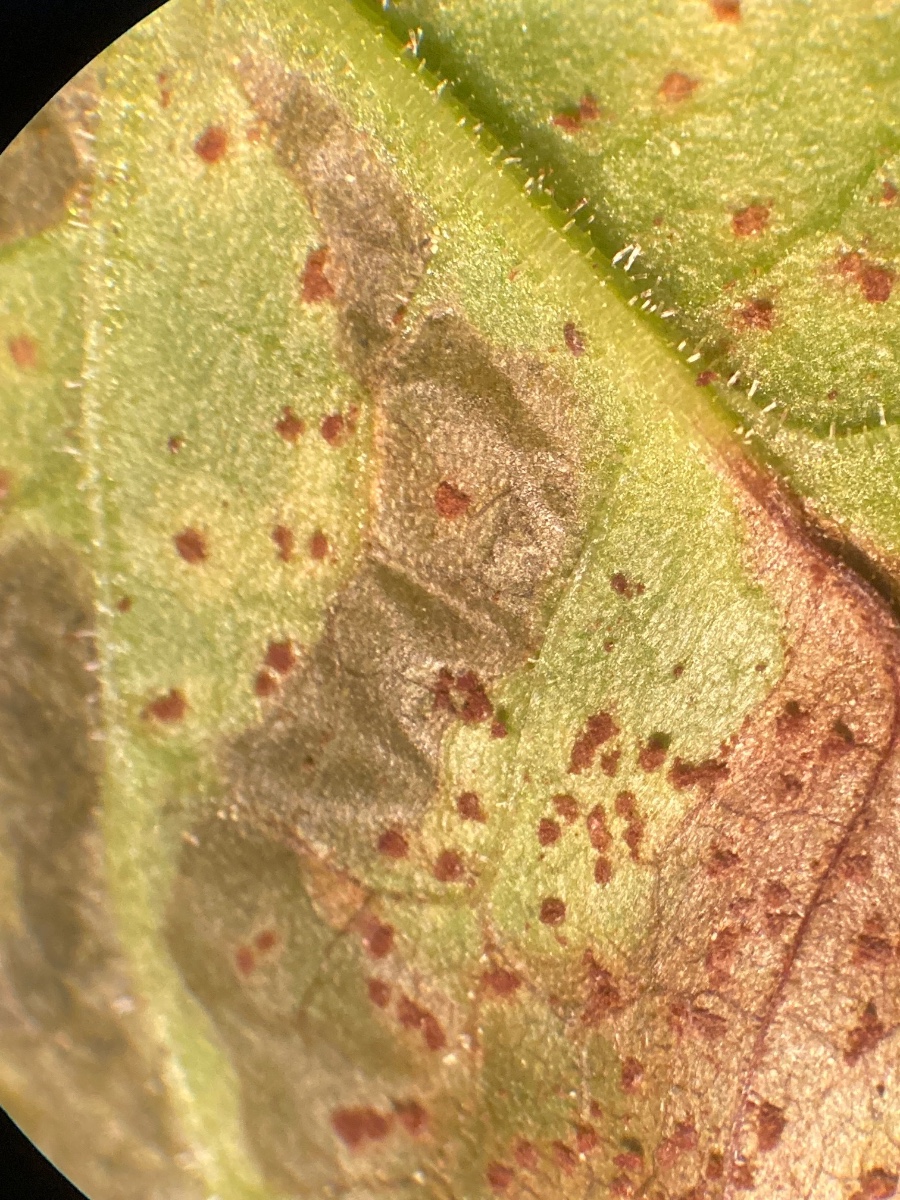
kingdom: Fungi
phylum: Basidiomycota
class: Pucciniomycetes
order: Pucciniales
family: Pucciniaceae
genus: Uromyces
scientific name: Uromyces rumicis
